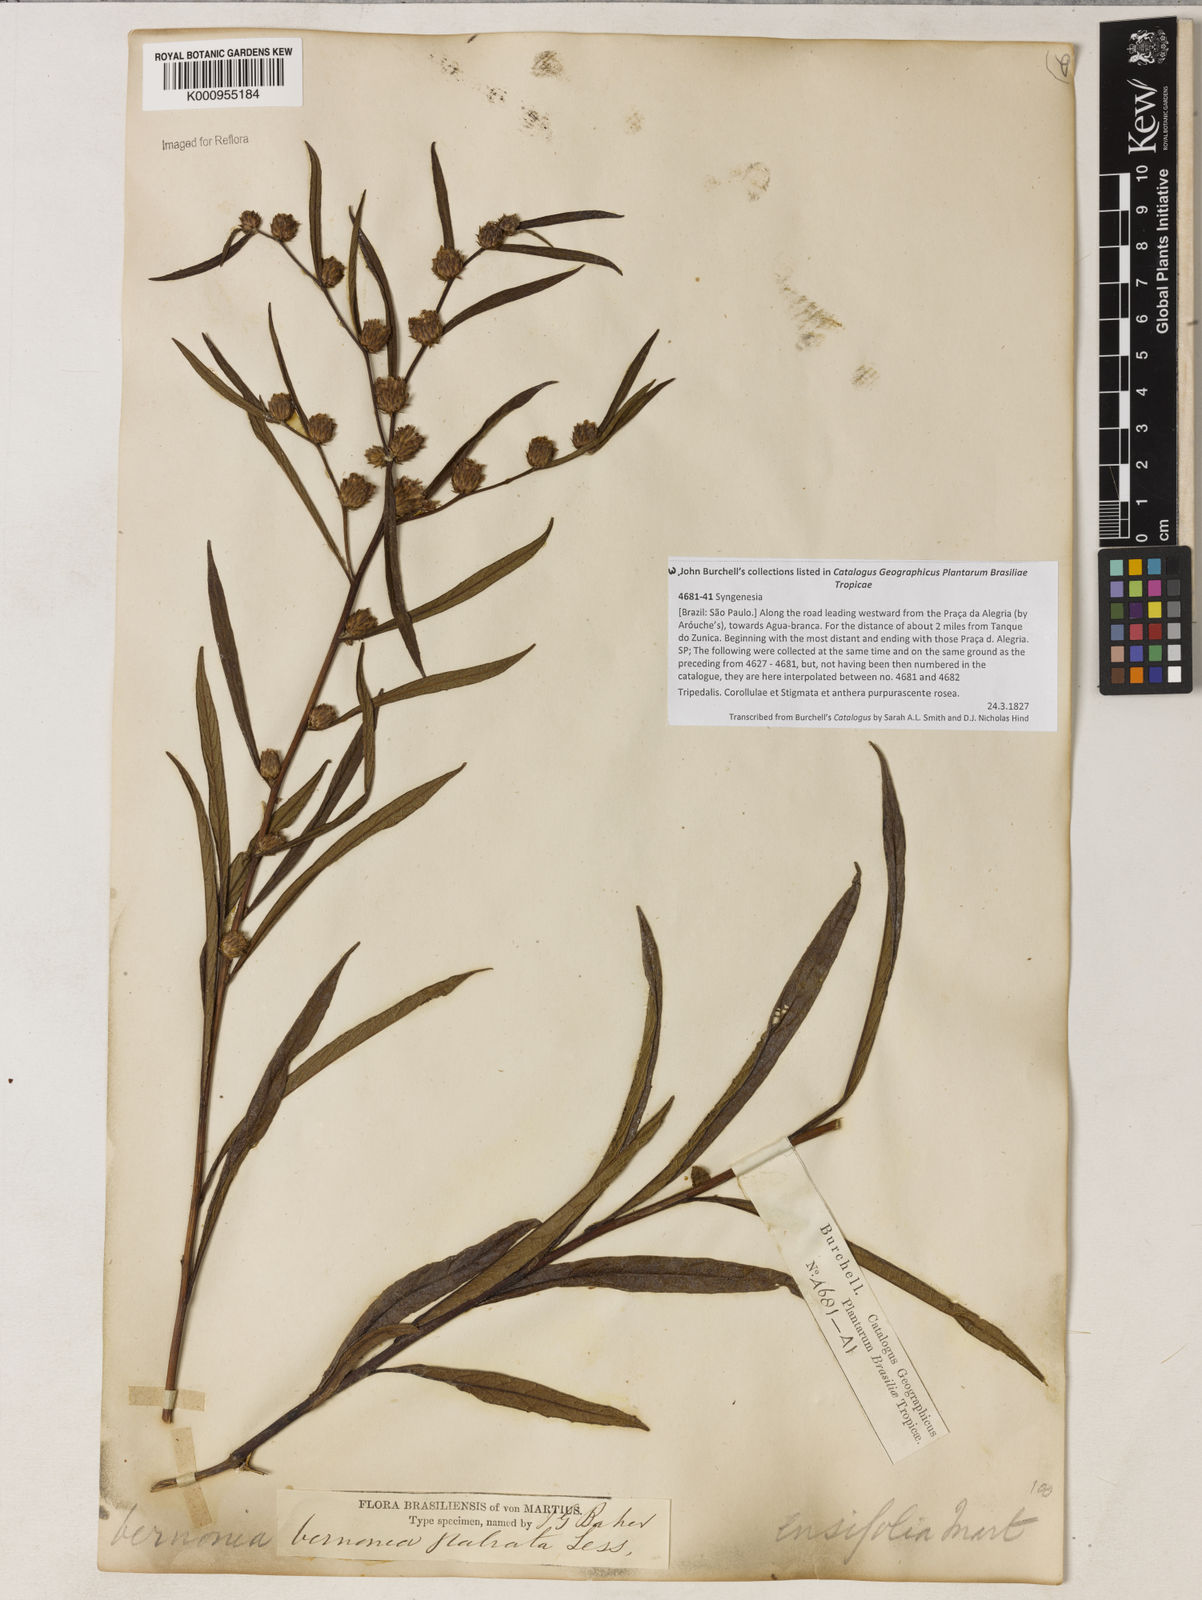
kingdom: Plantae
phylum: Tracheophyta
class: Magnoliopsida
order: Asterales
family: Asteraceae
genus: Lessingianthus
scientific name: Lessingianthus glabratus
